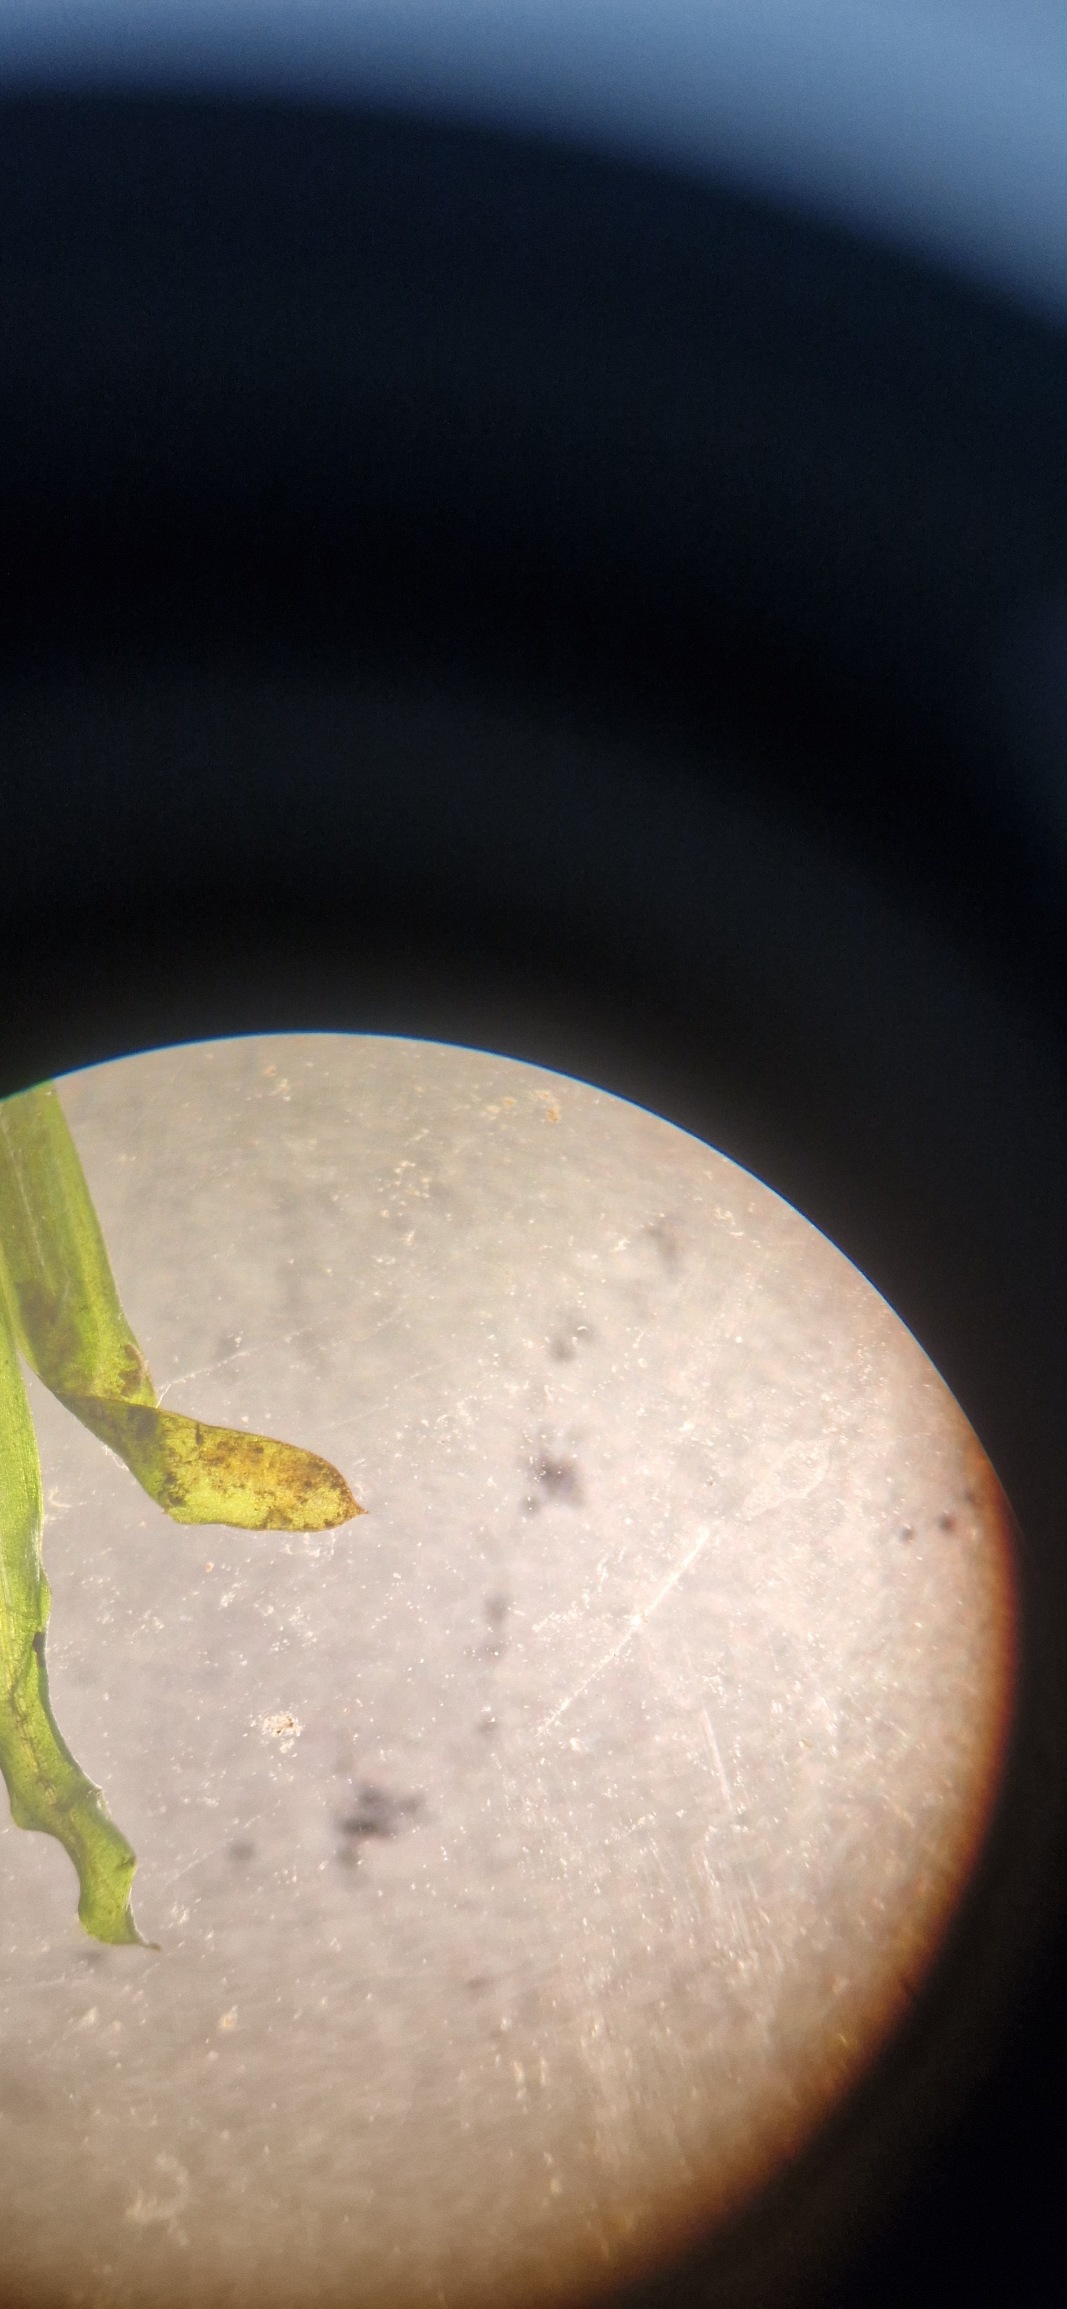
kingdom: Plantae
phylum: Tracheophyta
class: Liliopsida
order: Alismatales
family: Potamogetonaceae
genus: Potamogeton
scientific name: Potamogeton
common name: Vandaks (Potamogeton-slægten)
